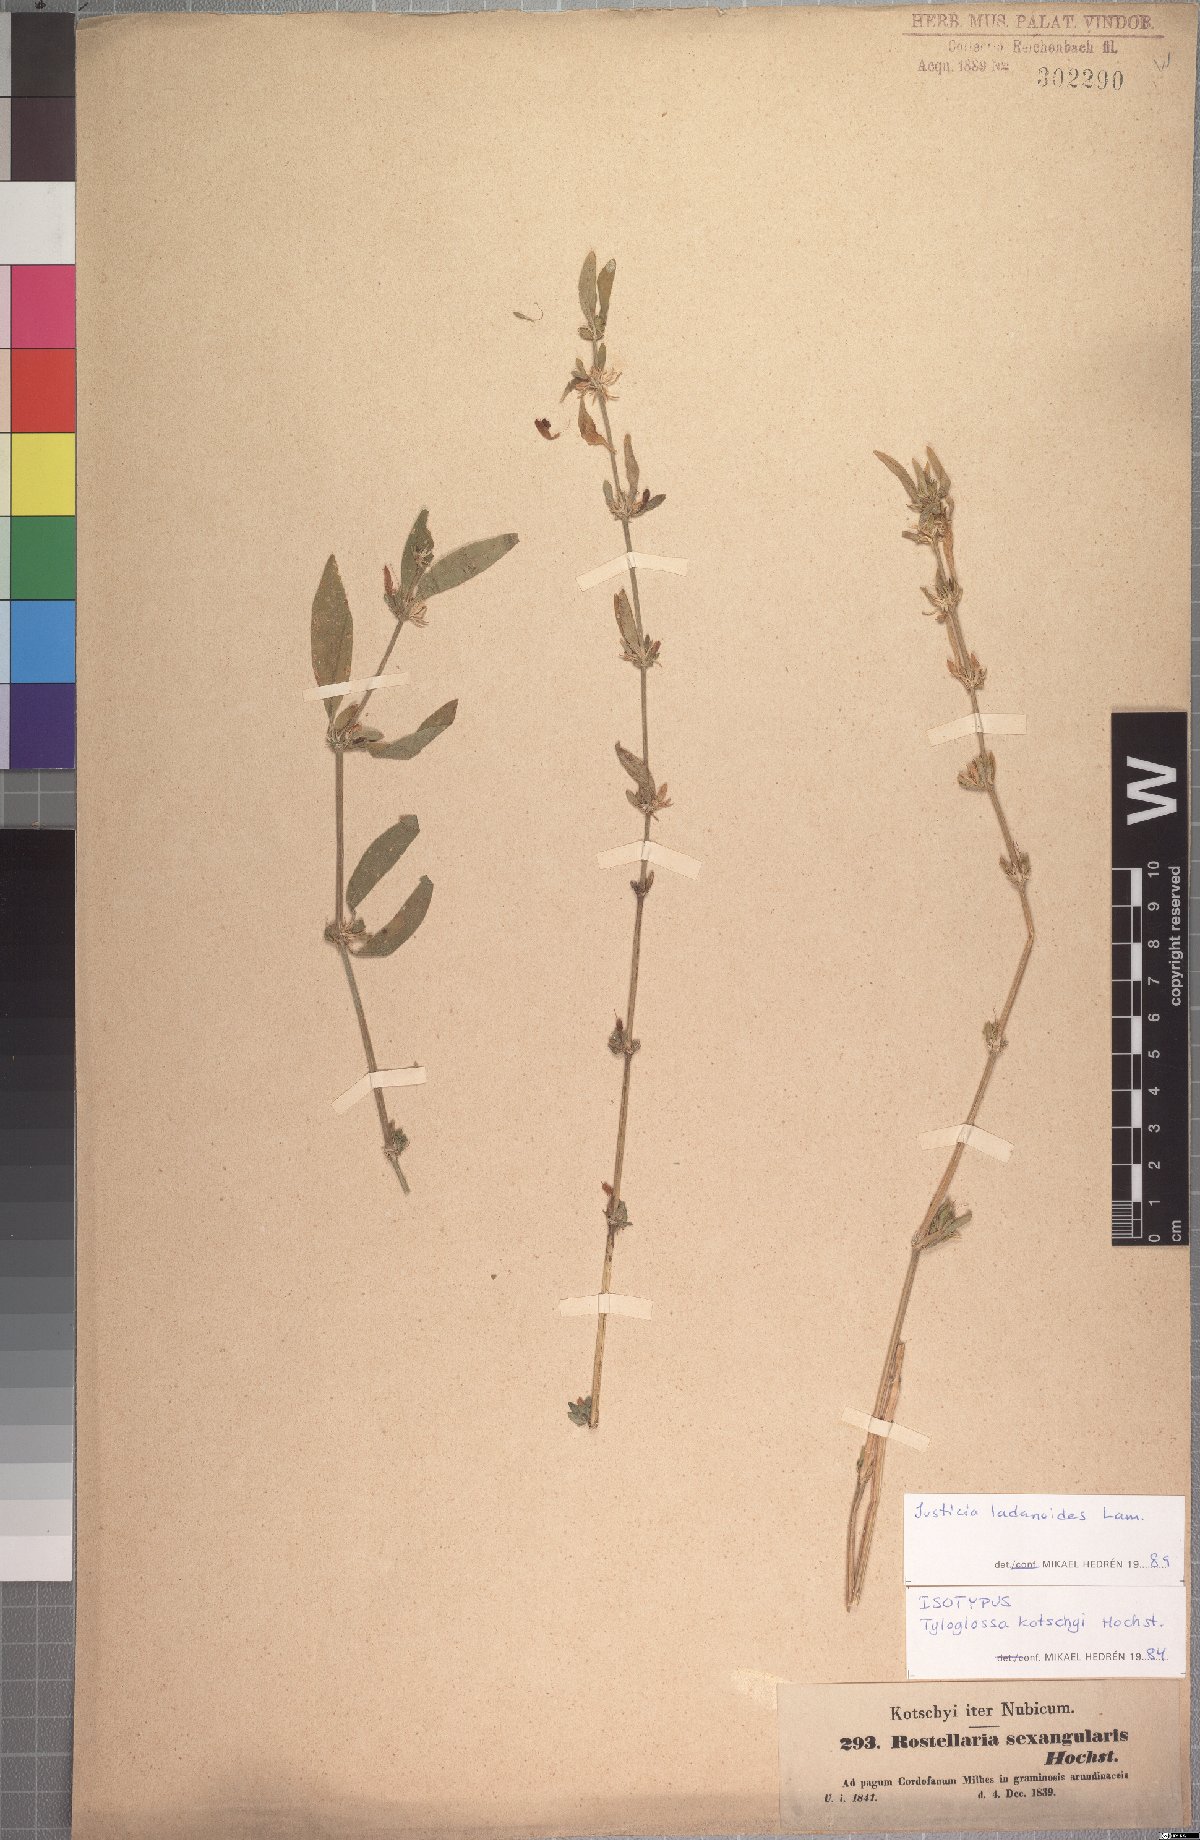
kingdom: Plantae
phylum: Tracheophyta
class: Magnoliopsida
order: Lamiales
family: Acanthaceae
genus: Justicia
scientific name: Justicia ladanoides
